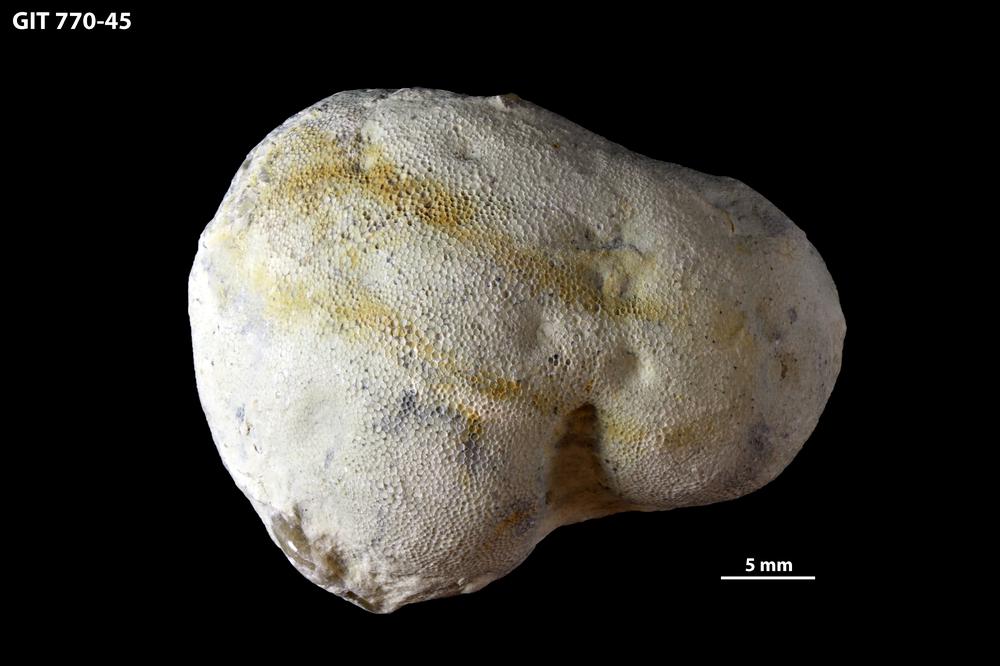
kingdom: Animalia
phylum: Bryozoa
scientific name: Bryozoa
